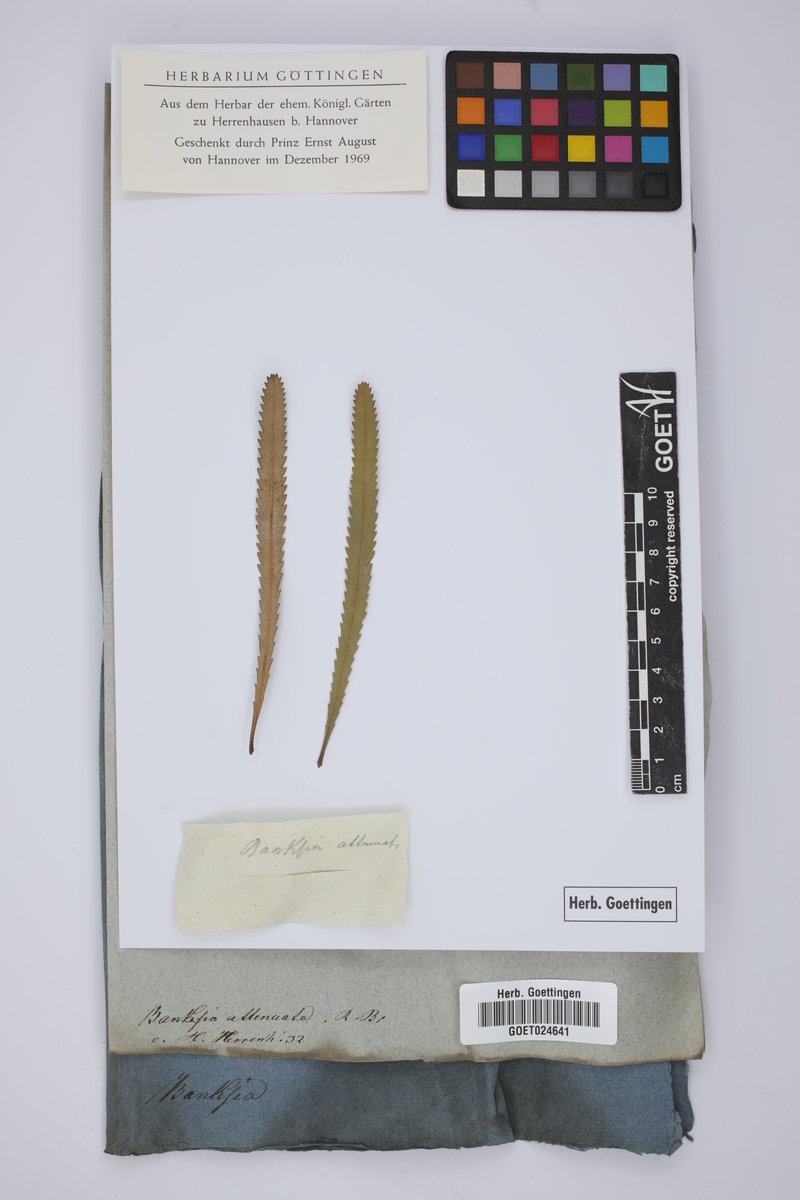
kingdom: Plantae
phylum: Tracheophyta
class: Magnoliopsida
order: Proteales
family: Proteaceae
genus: Banksia
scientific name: Banksia attenuata
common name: Coast banksia
